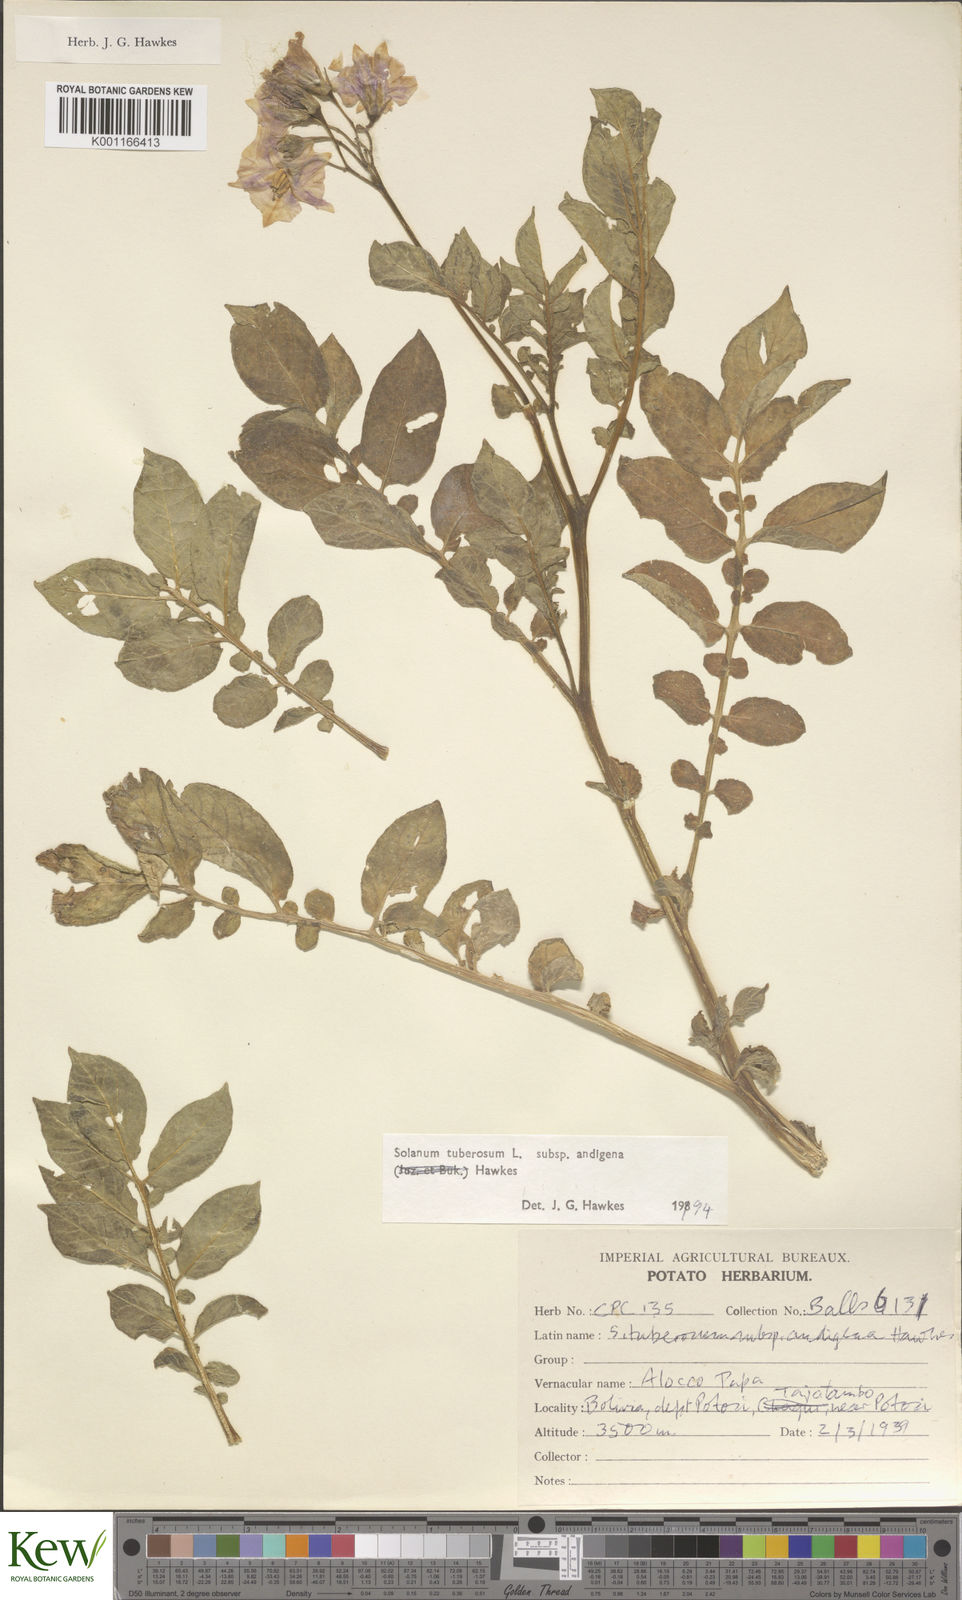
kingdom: Plantae
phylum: Tracheophyta
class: Magnoliopsida
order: Solanales
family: Solanaceae
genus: Solanum
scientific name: Solanum tuberosum
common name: Potato
